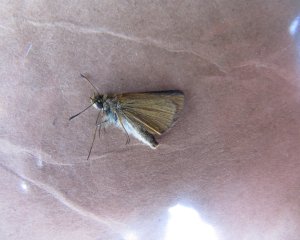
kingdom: Animalia
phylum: Arthropoda
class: Insecta
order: Lepidoptera
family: Hesperiidae
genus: Thymelicus
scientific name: Thymelicus lineola
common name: European Skipper
